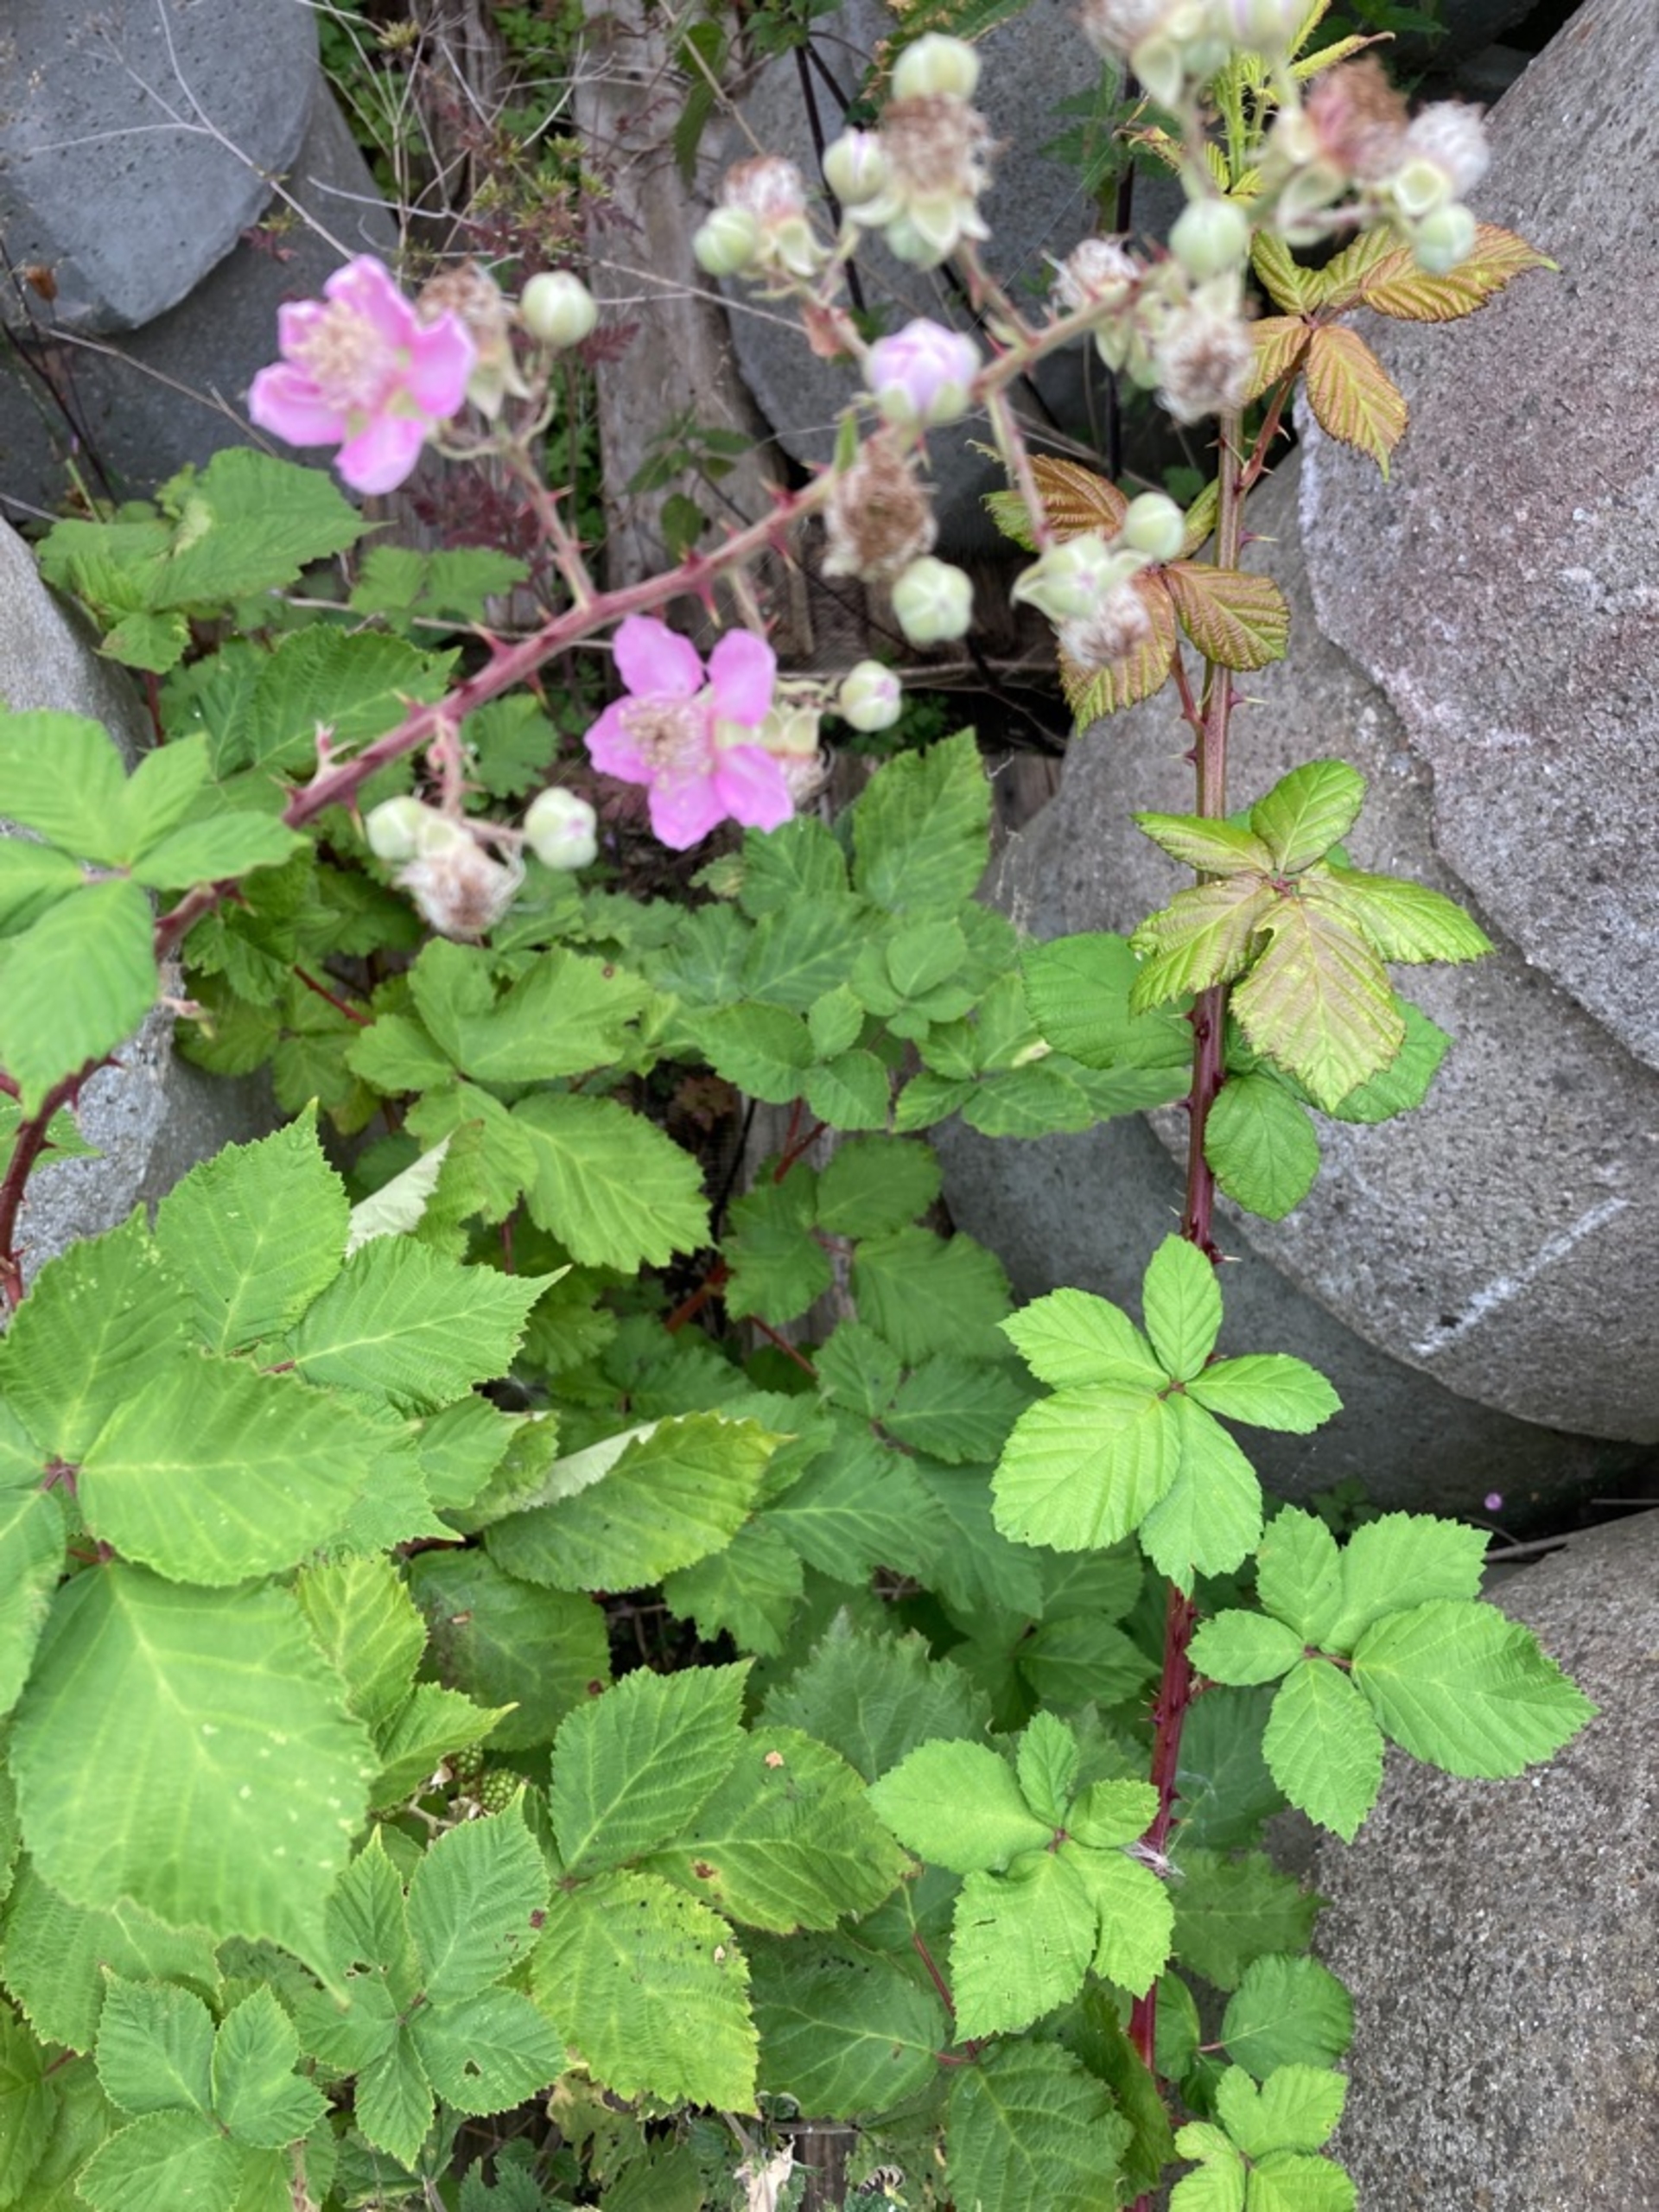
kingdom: Plantae
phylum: Tracheophyta
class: Magnoliopsida
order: Rosales
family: Rosaceae
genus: Rubus
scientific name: Rubus
